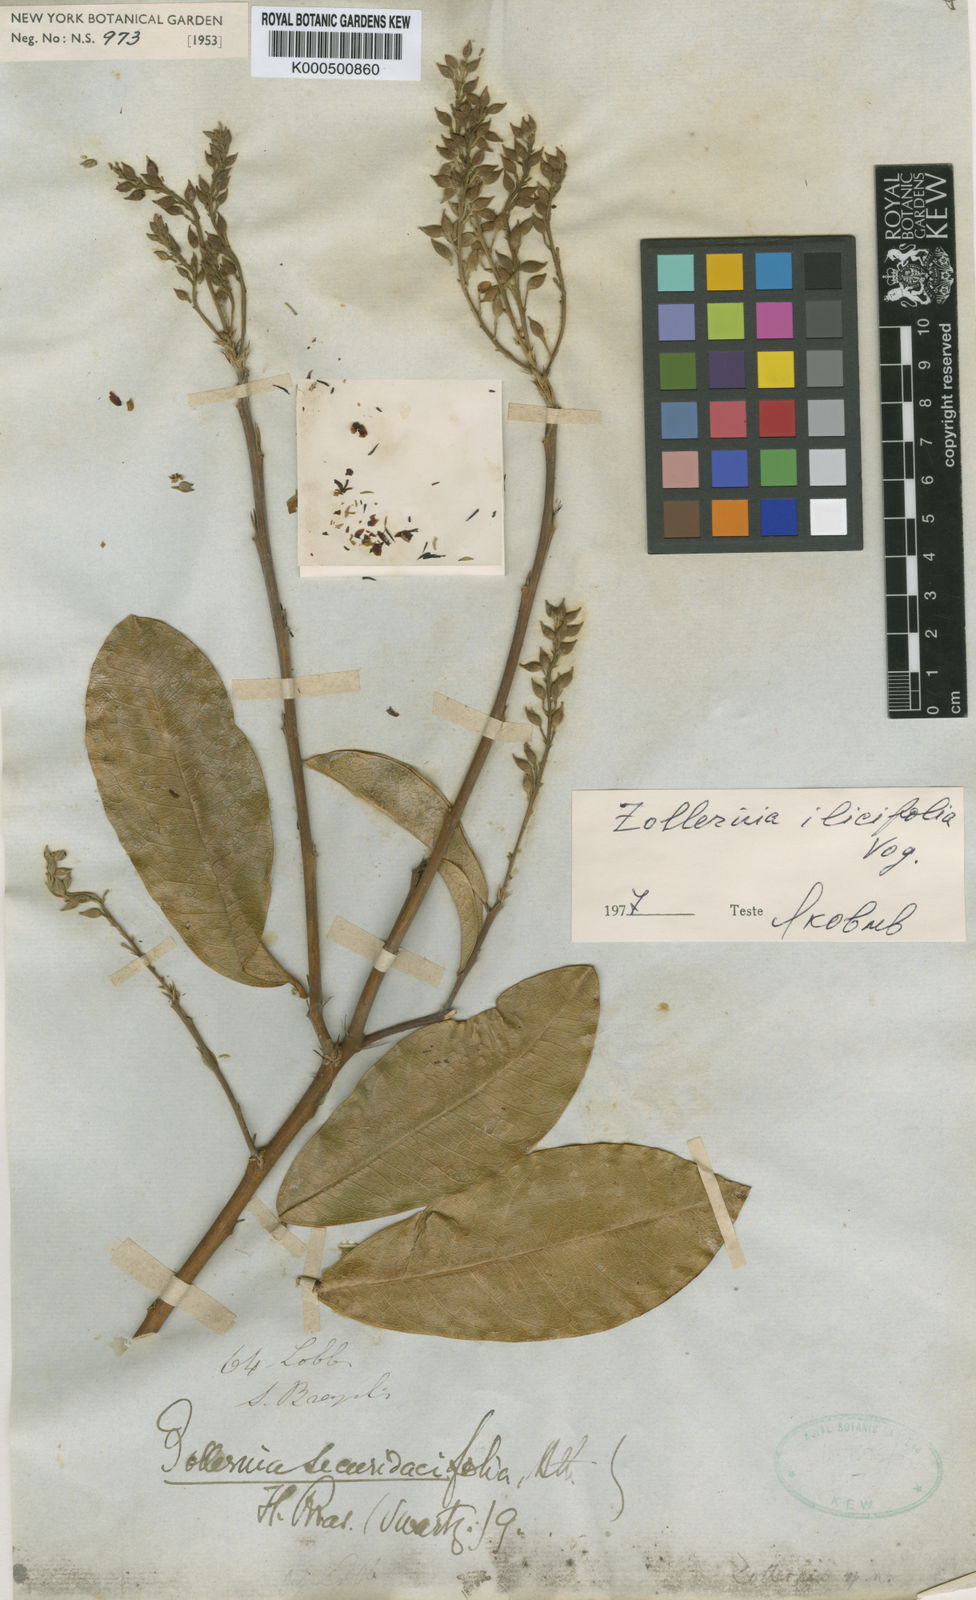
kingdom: Plantae
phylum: Tracheophyta
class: Magnoliopsida
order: Fabales
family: Fabaceae
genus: Zollernia
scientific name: Zollernia ilicifolia
